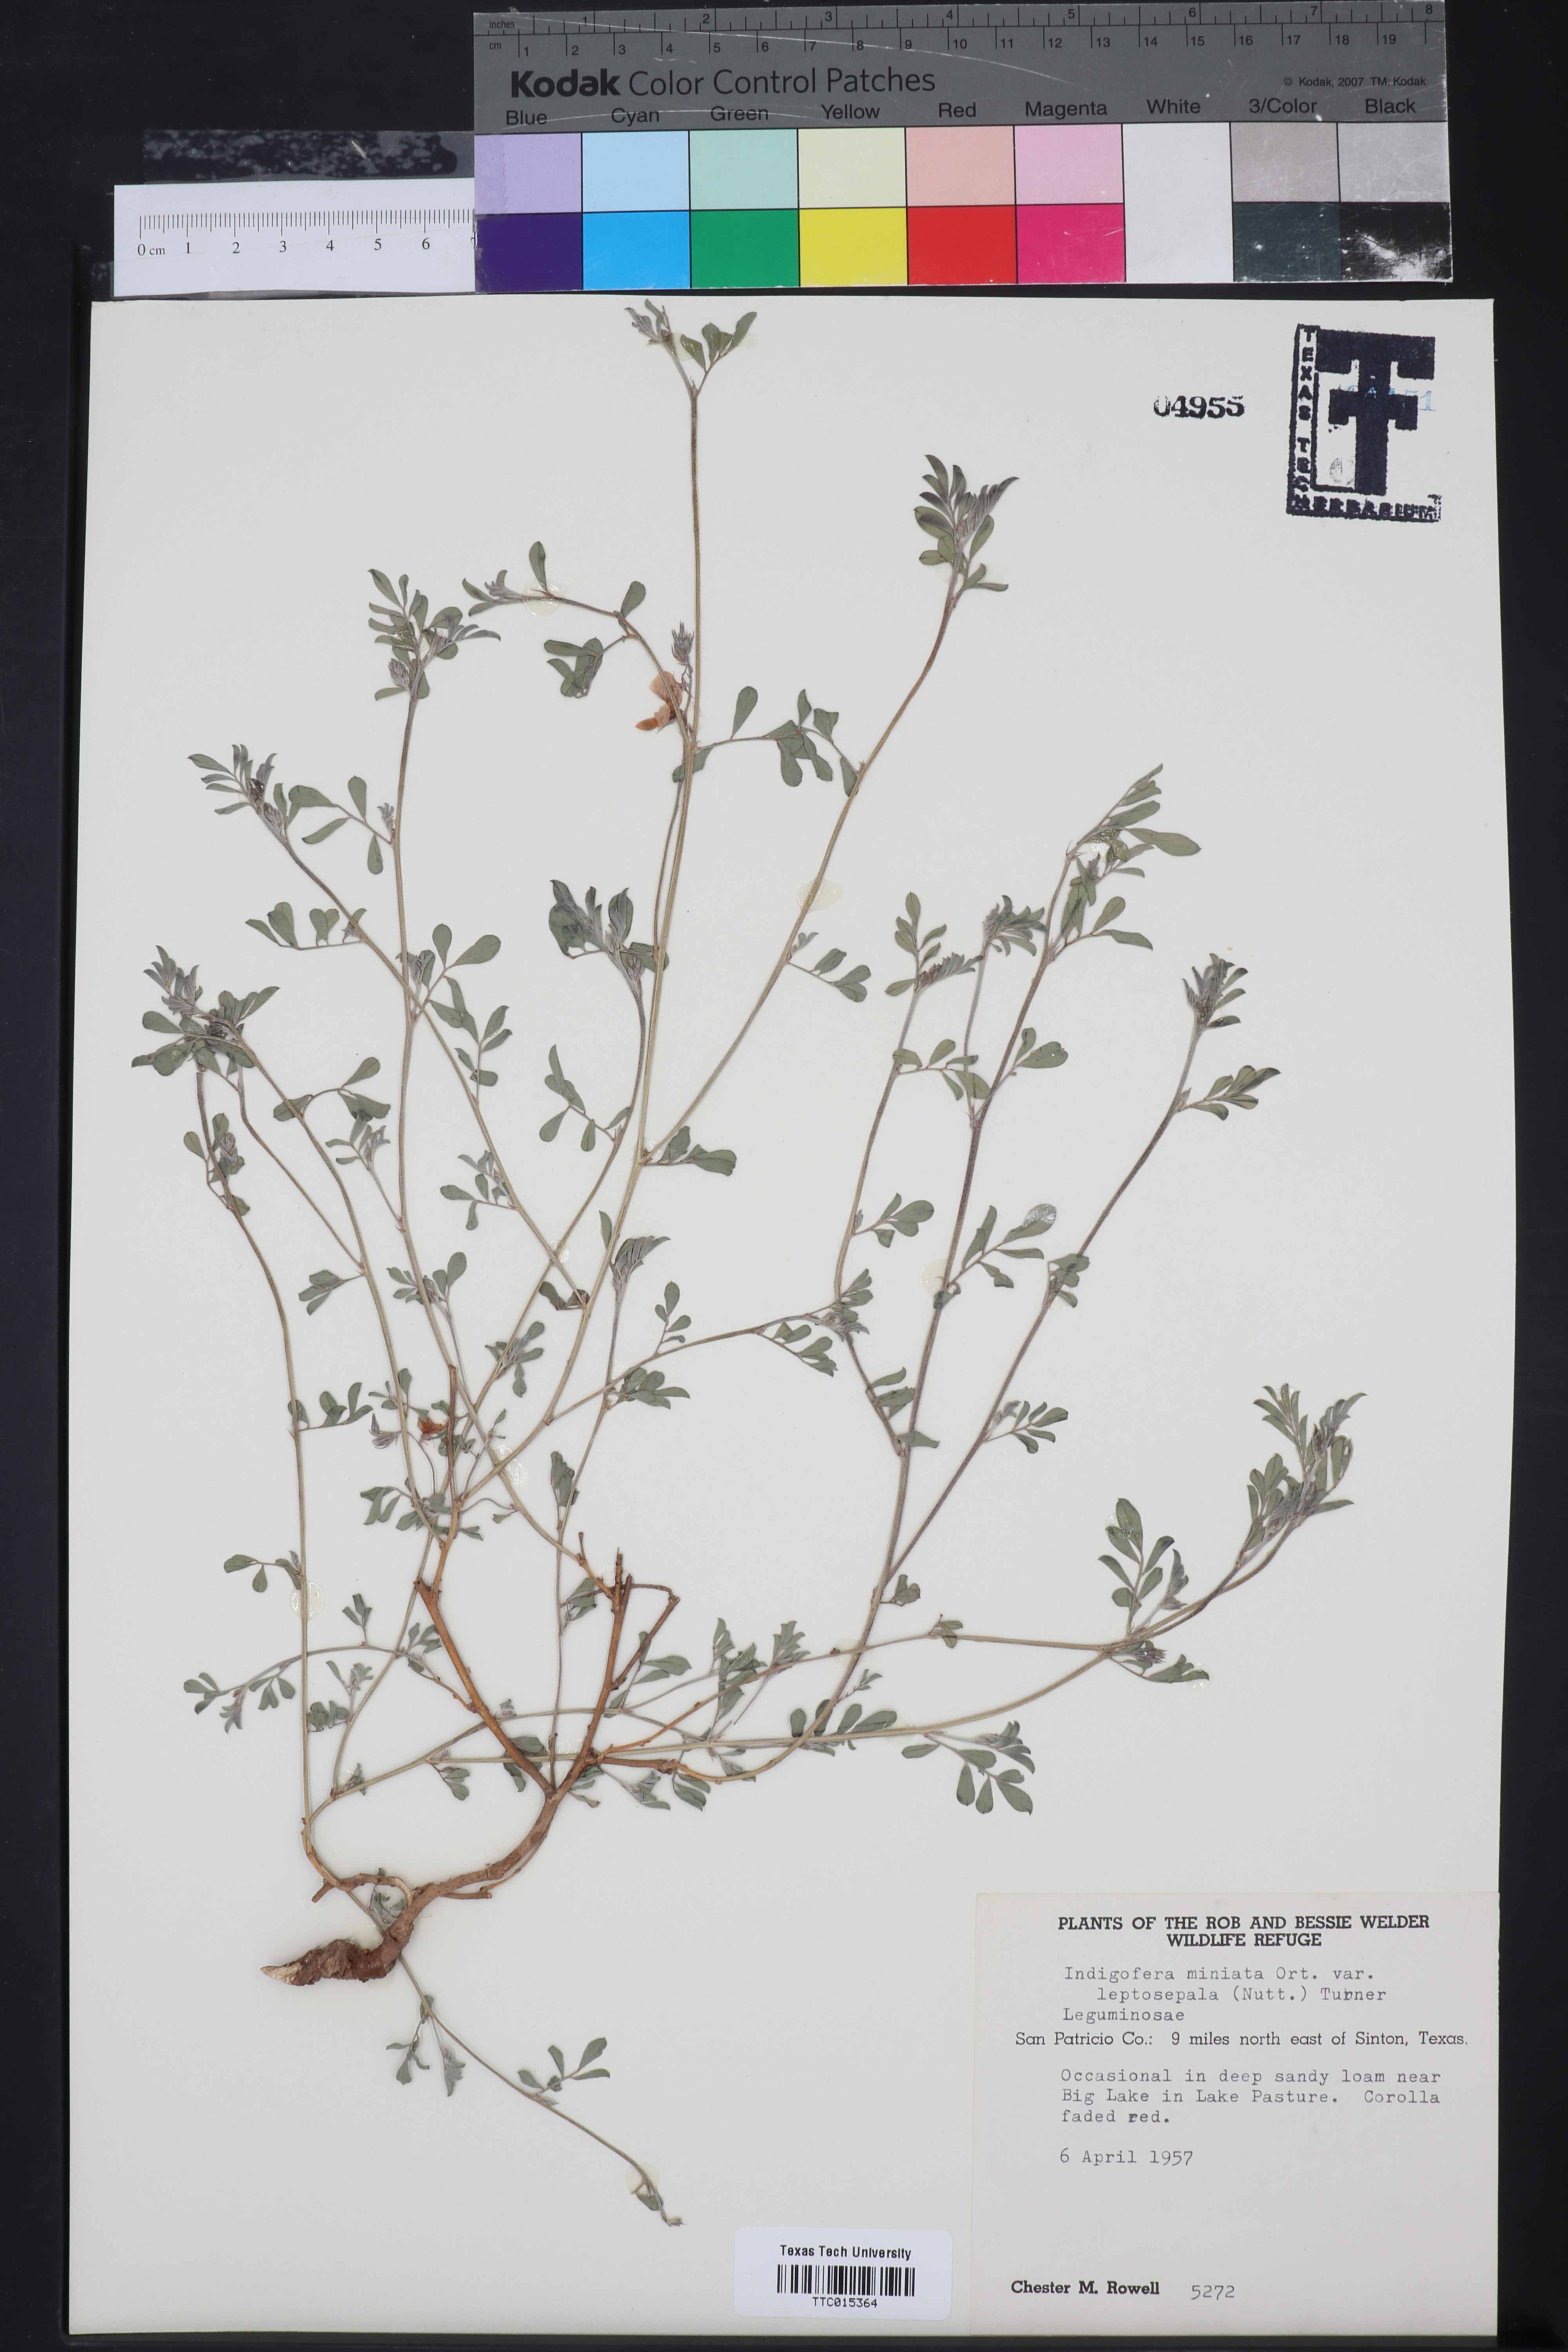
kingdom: Plantae
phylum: Tracheophyta
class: Magnoliopsida
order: Fabales
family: Fabaceae
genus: Indigofera
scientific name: Indigofera miniata
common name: Coast indigo
